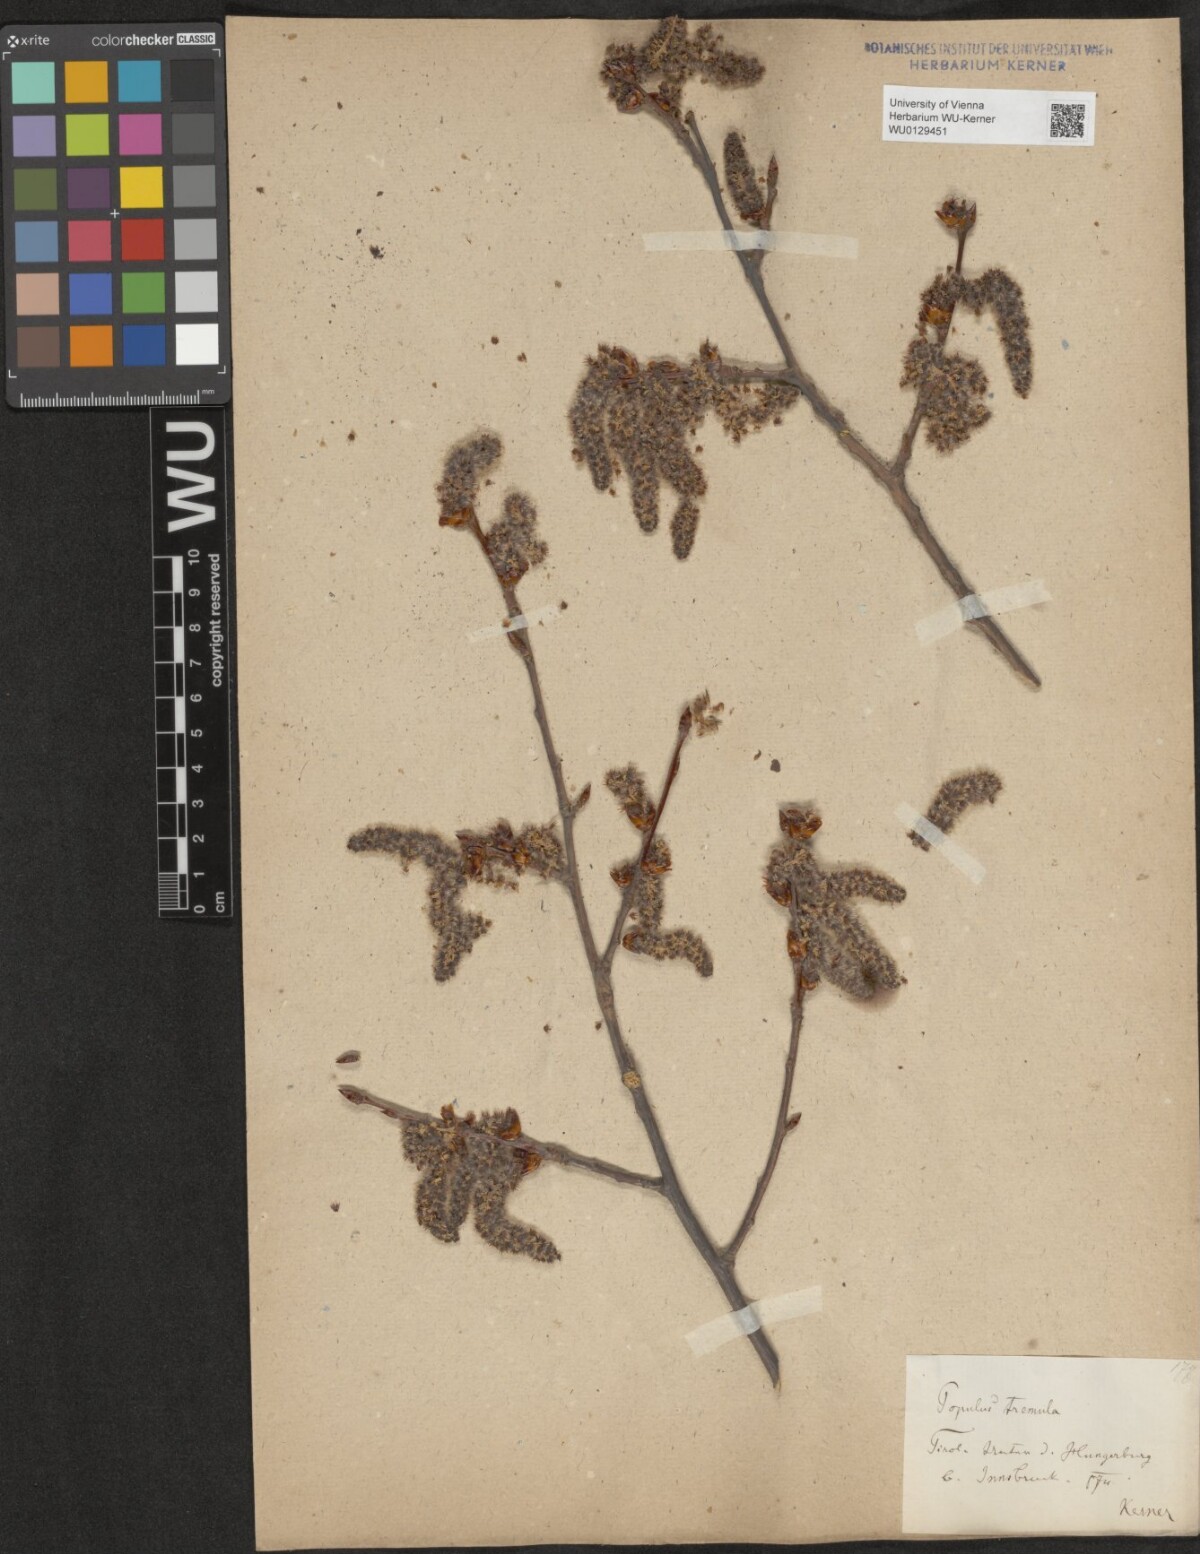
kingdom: Plantae
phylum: Tracheophyta
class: Magnoliopsida
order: Malpighiales
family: Salicaceae
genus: Populus
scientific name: Populus tremula
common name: European aspen
